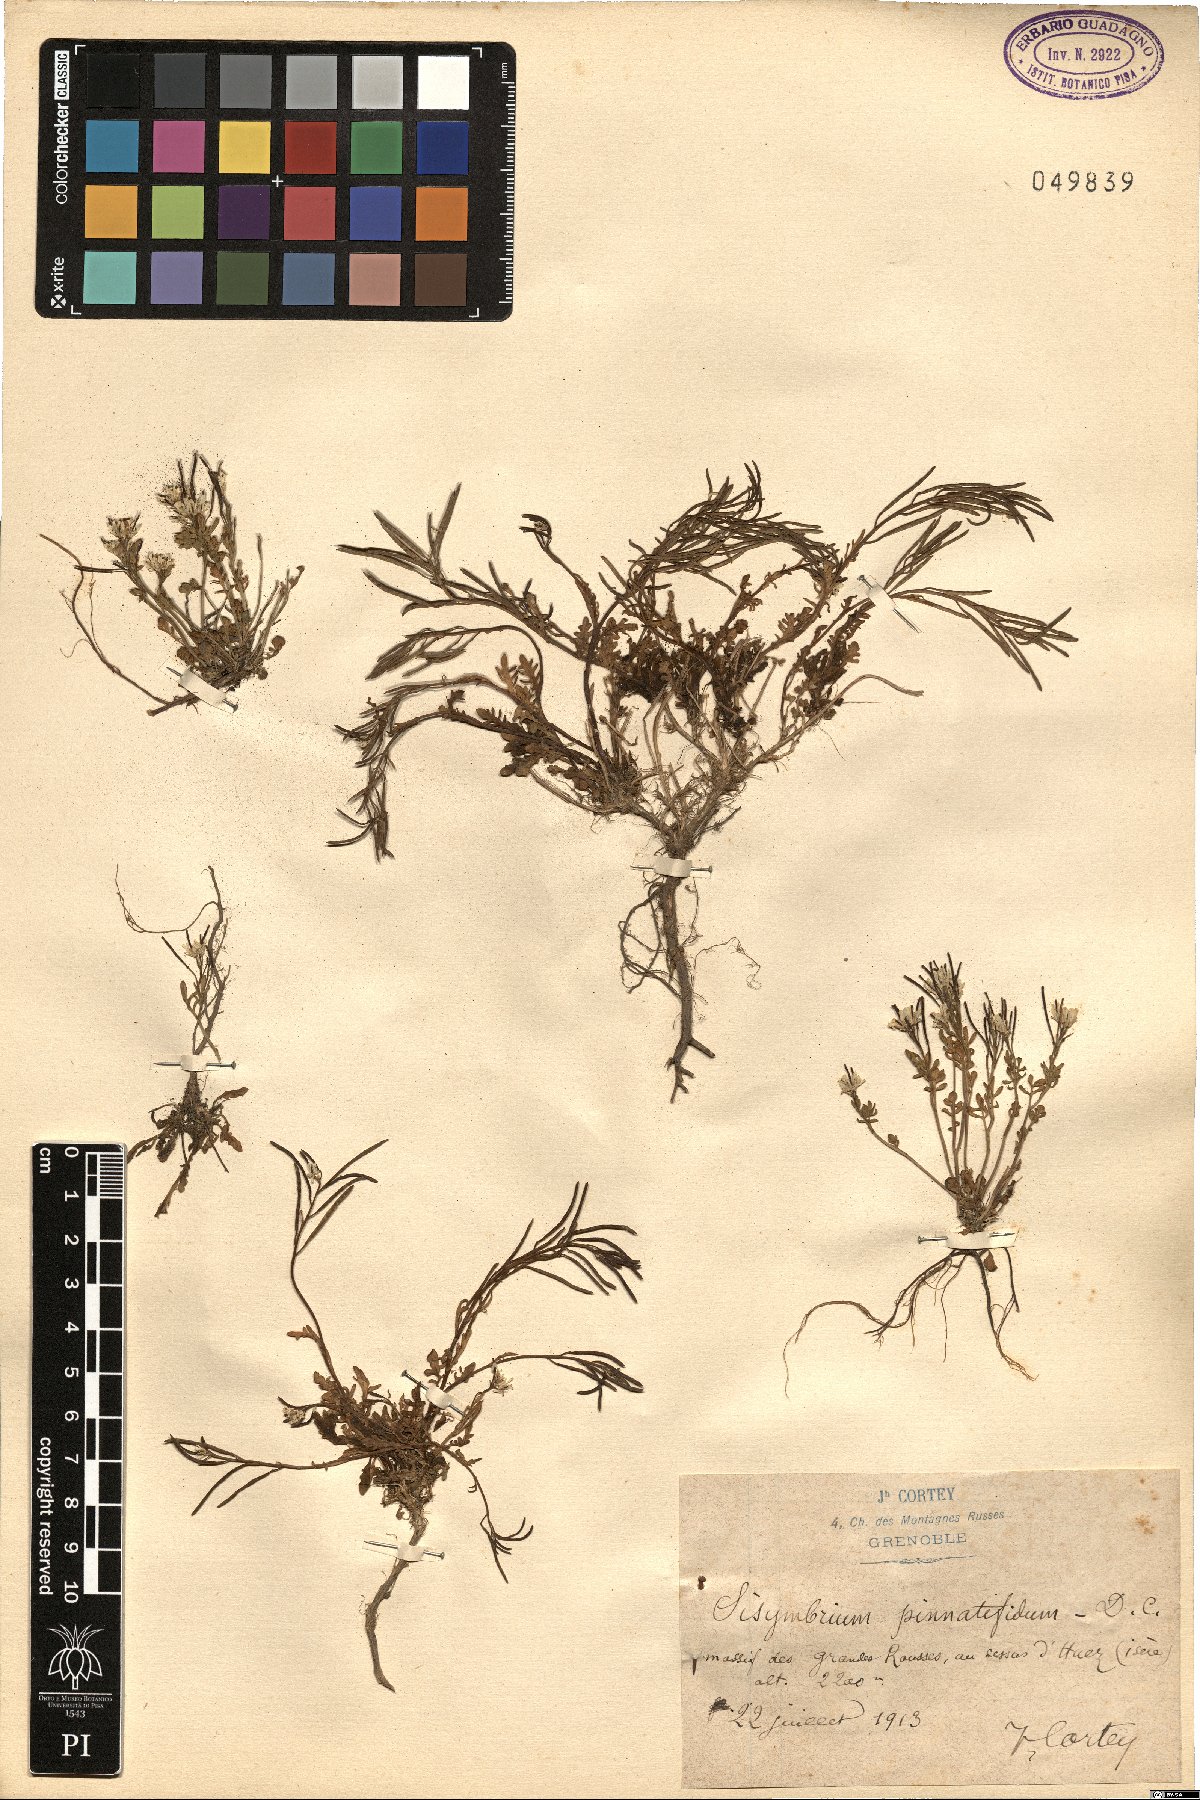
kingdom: Plantae
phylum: Tracheophyta
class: Magnoliopsida
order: Brassicales
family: Brassicaceae
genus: Sisymbrium
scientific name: Sisymbrium irio
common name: London rocket
